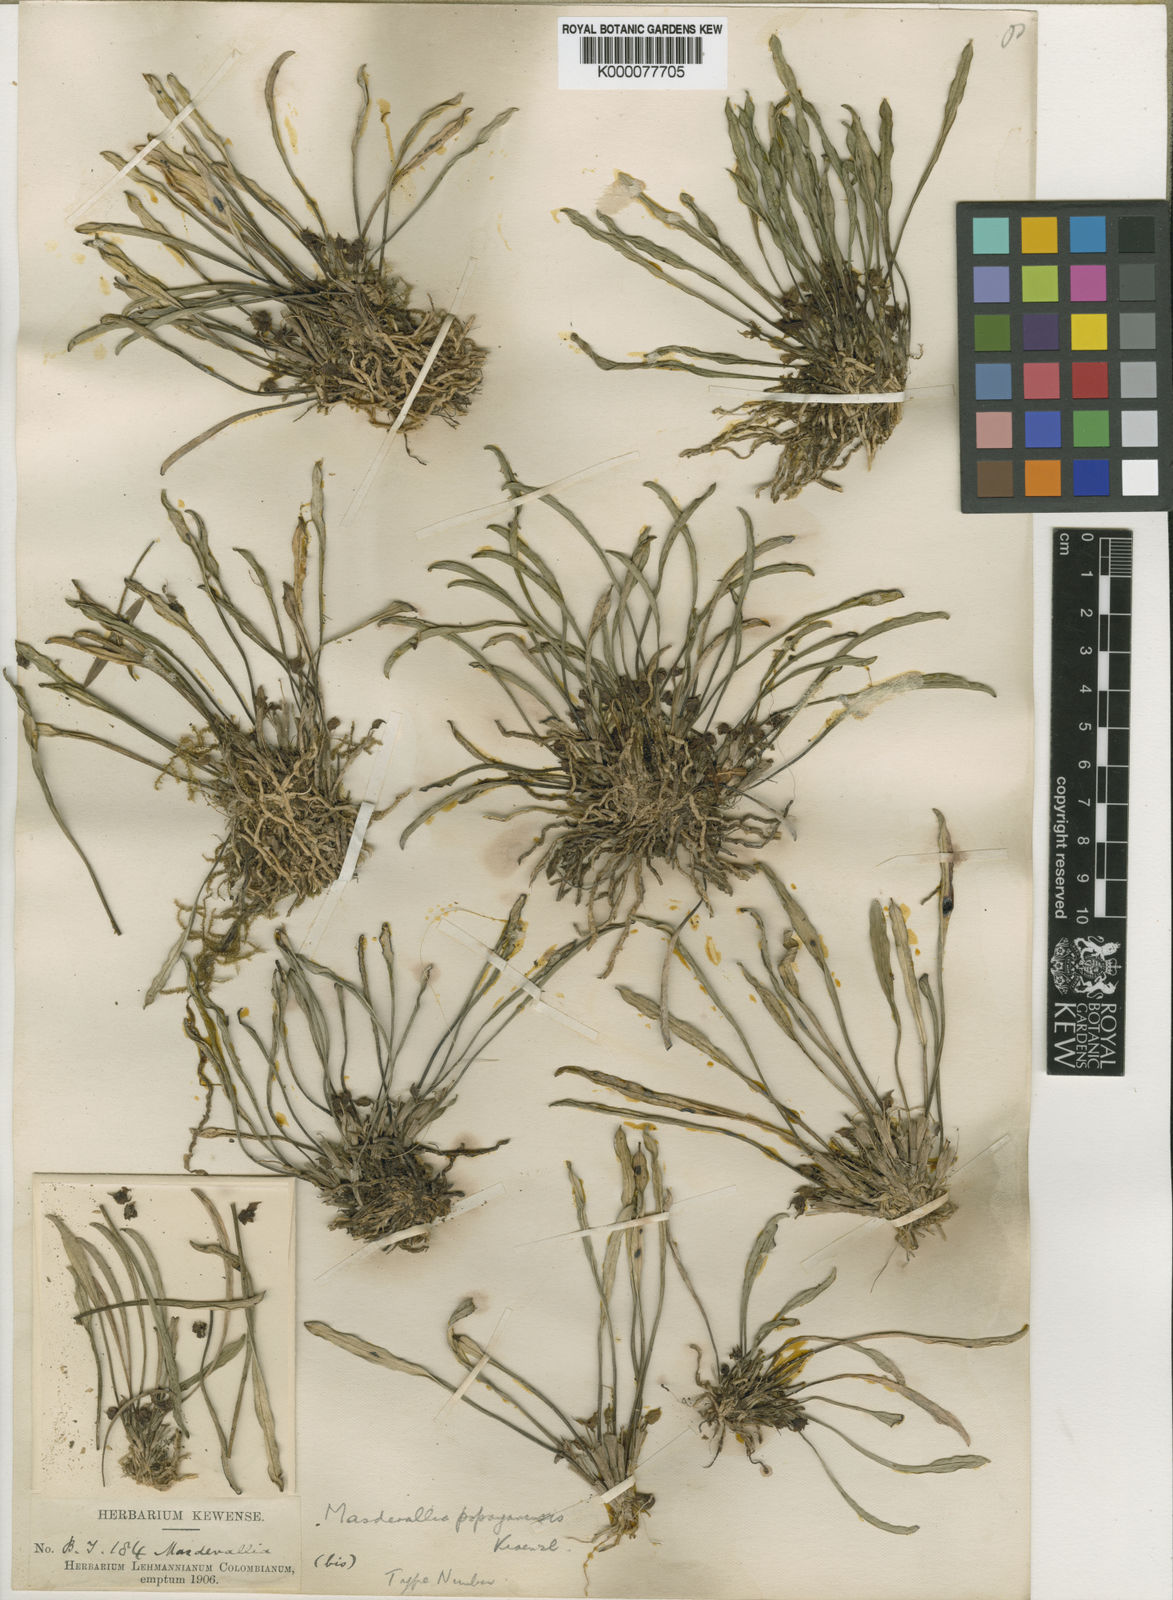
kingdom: Plantae
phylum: Tracheophyta
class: Liliopsida
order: Asparagales
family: Orchidaceae
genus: Dryadella
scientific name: Dryadella simula
